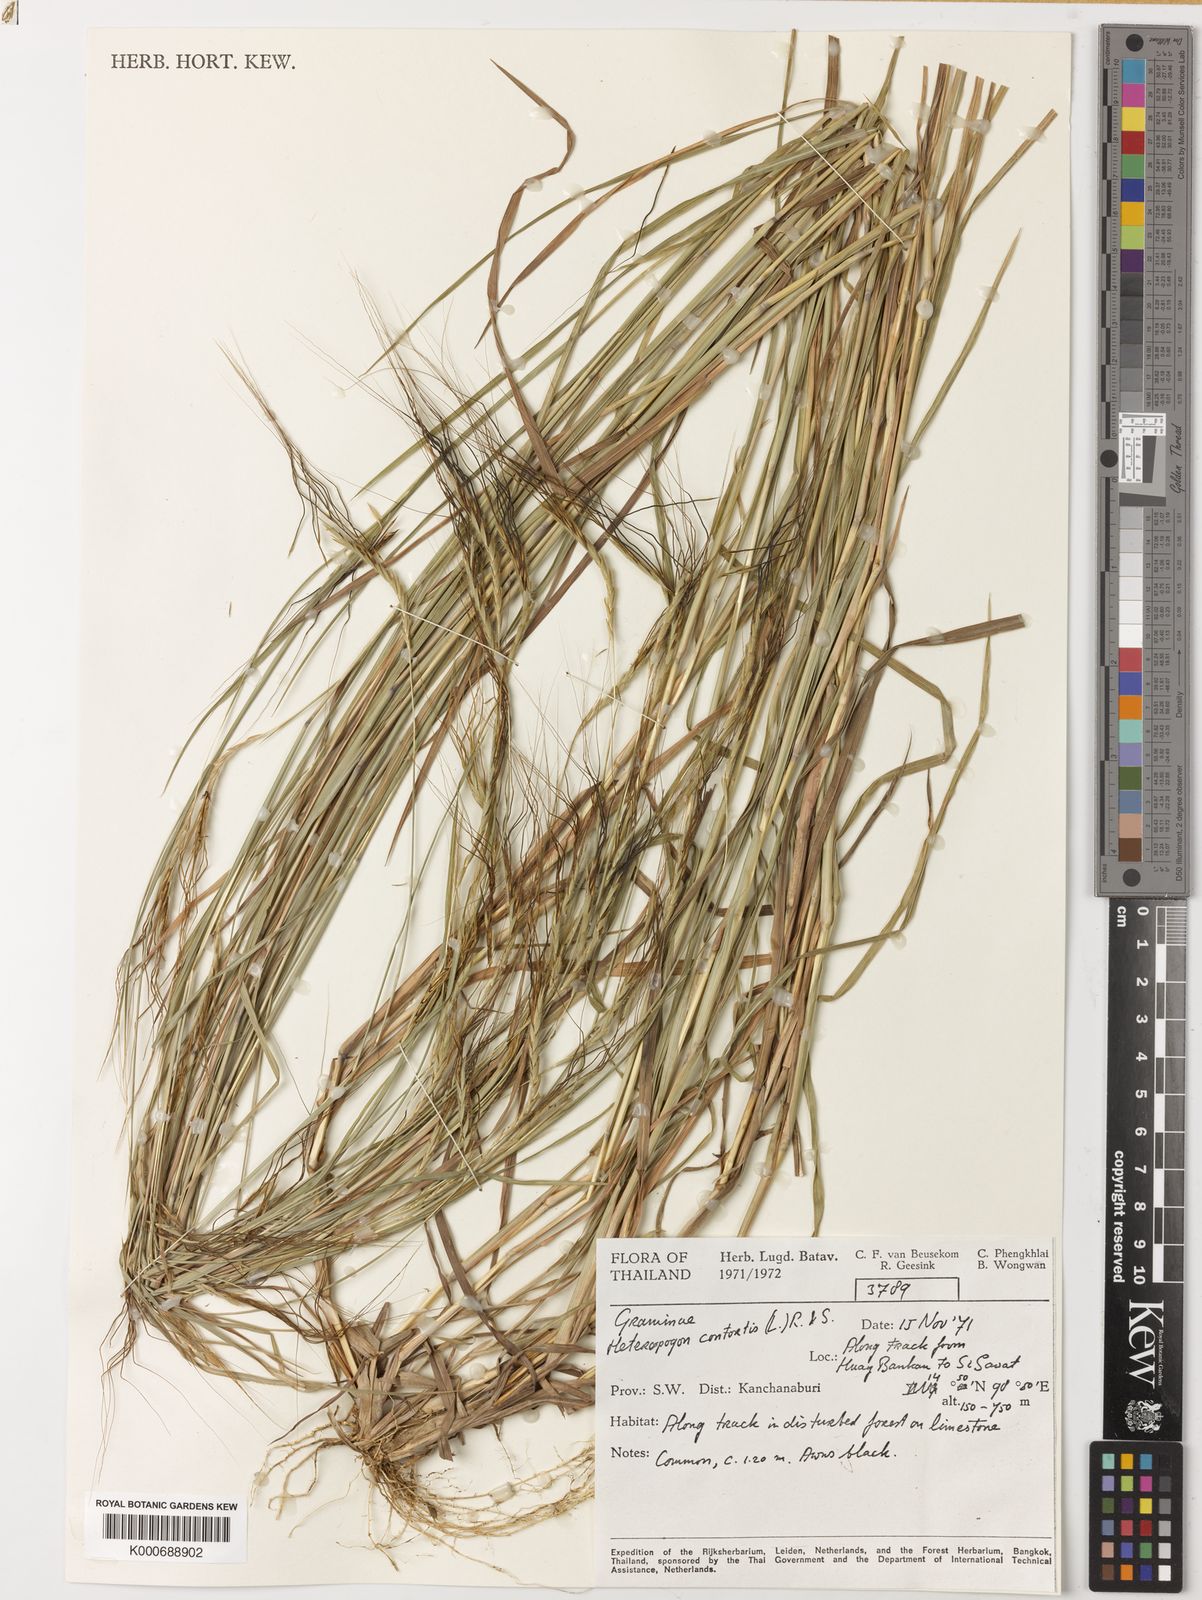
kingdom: Plantae
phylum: Tracheophyta
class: Liliopsida
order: Poales
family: Poaceae
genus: Heteropogon
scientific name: Heteropogon contortus
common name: Tanglehead
